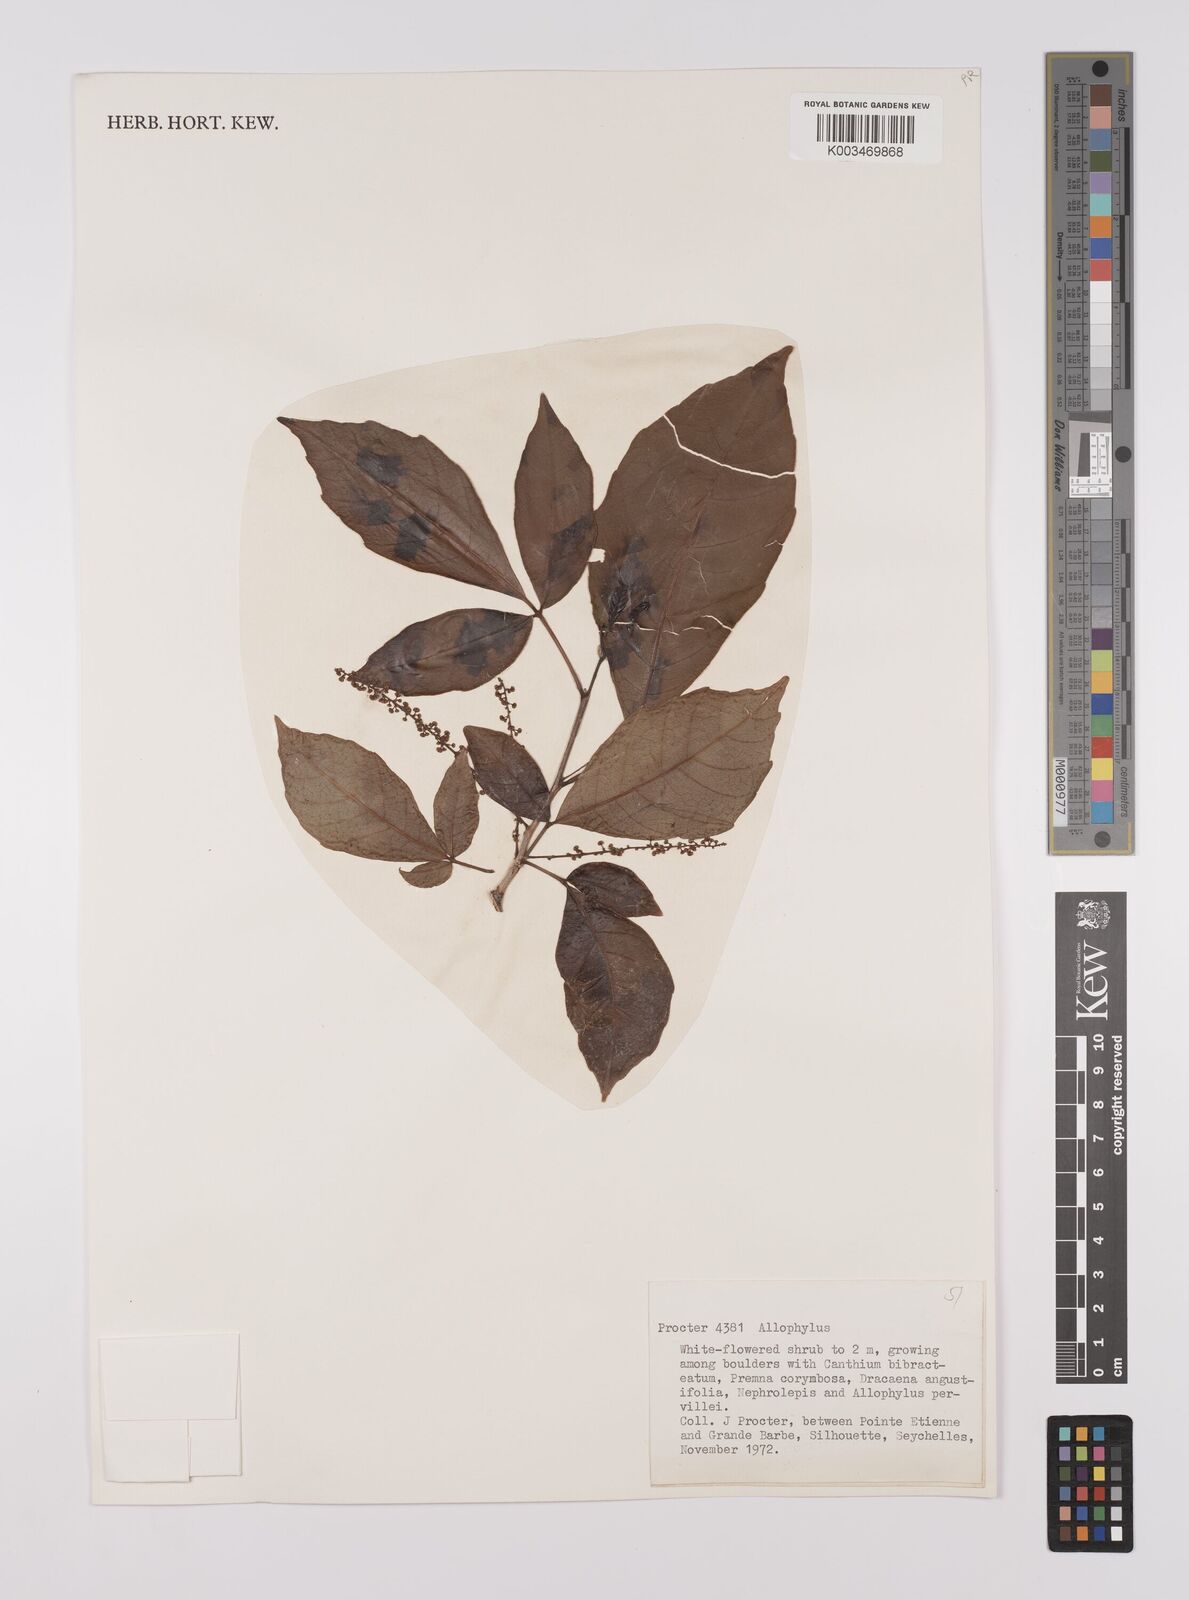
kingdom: Plantae
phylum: Tracheophyta
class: Magnoliopsida
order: Sapindales
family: Sapindaceae
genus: Allophylus
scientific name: Allophylus sechellensis
